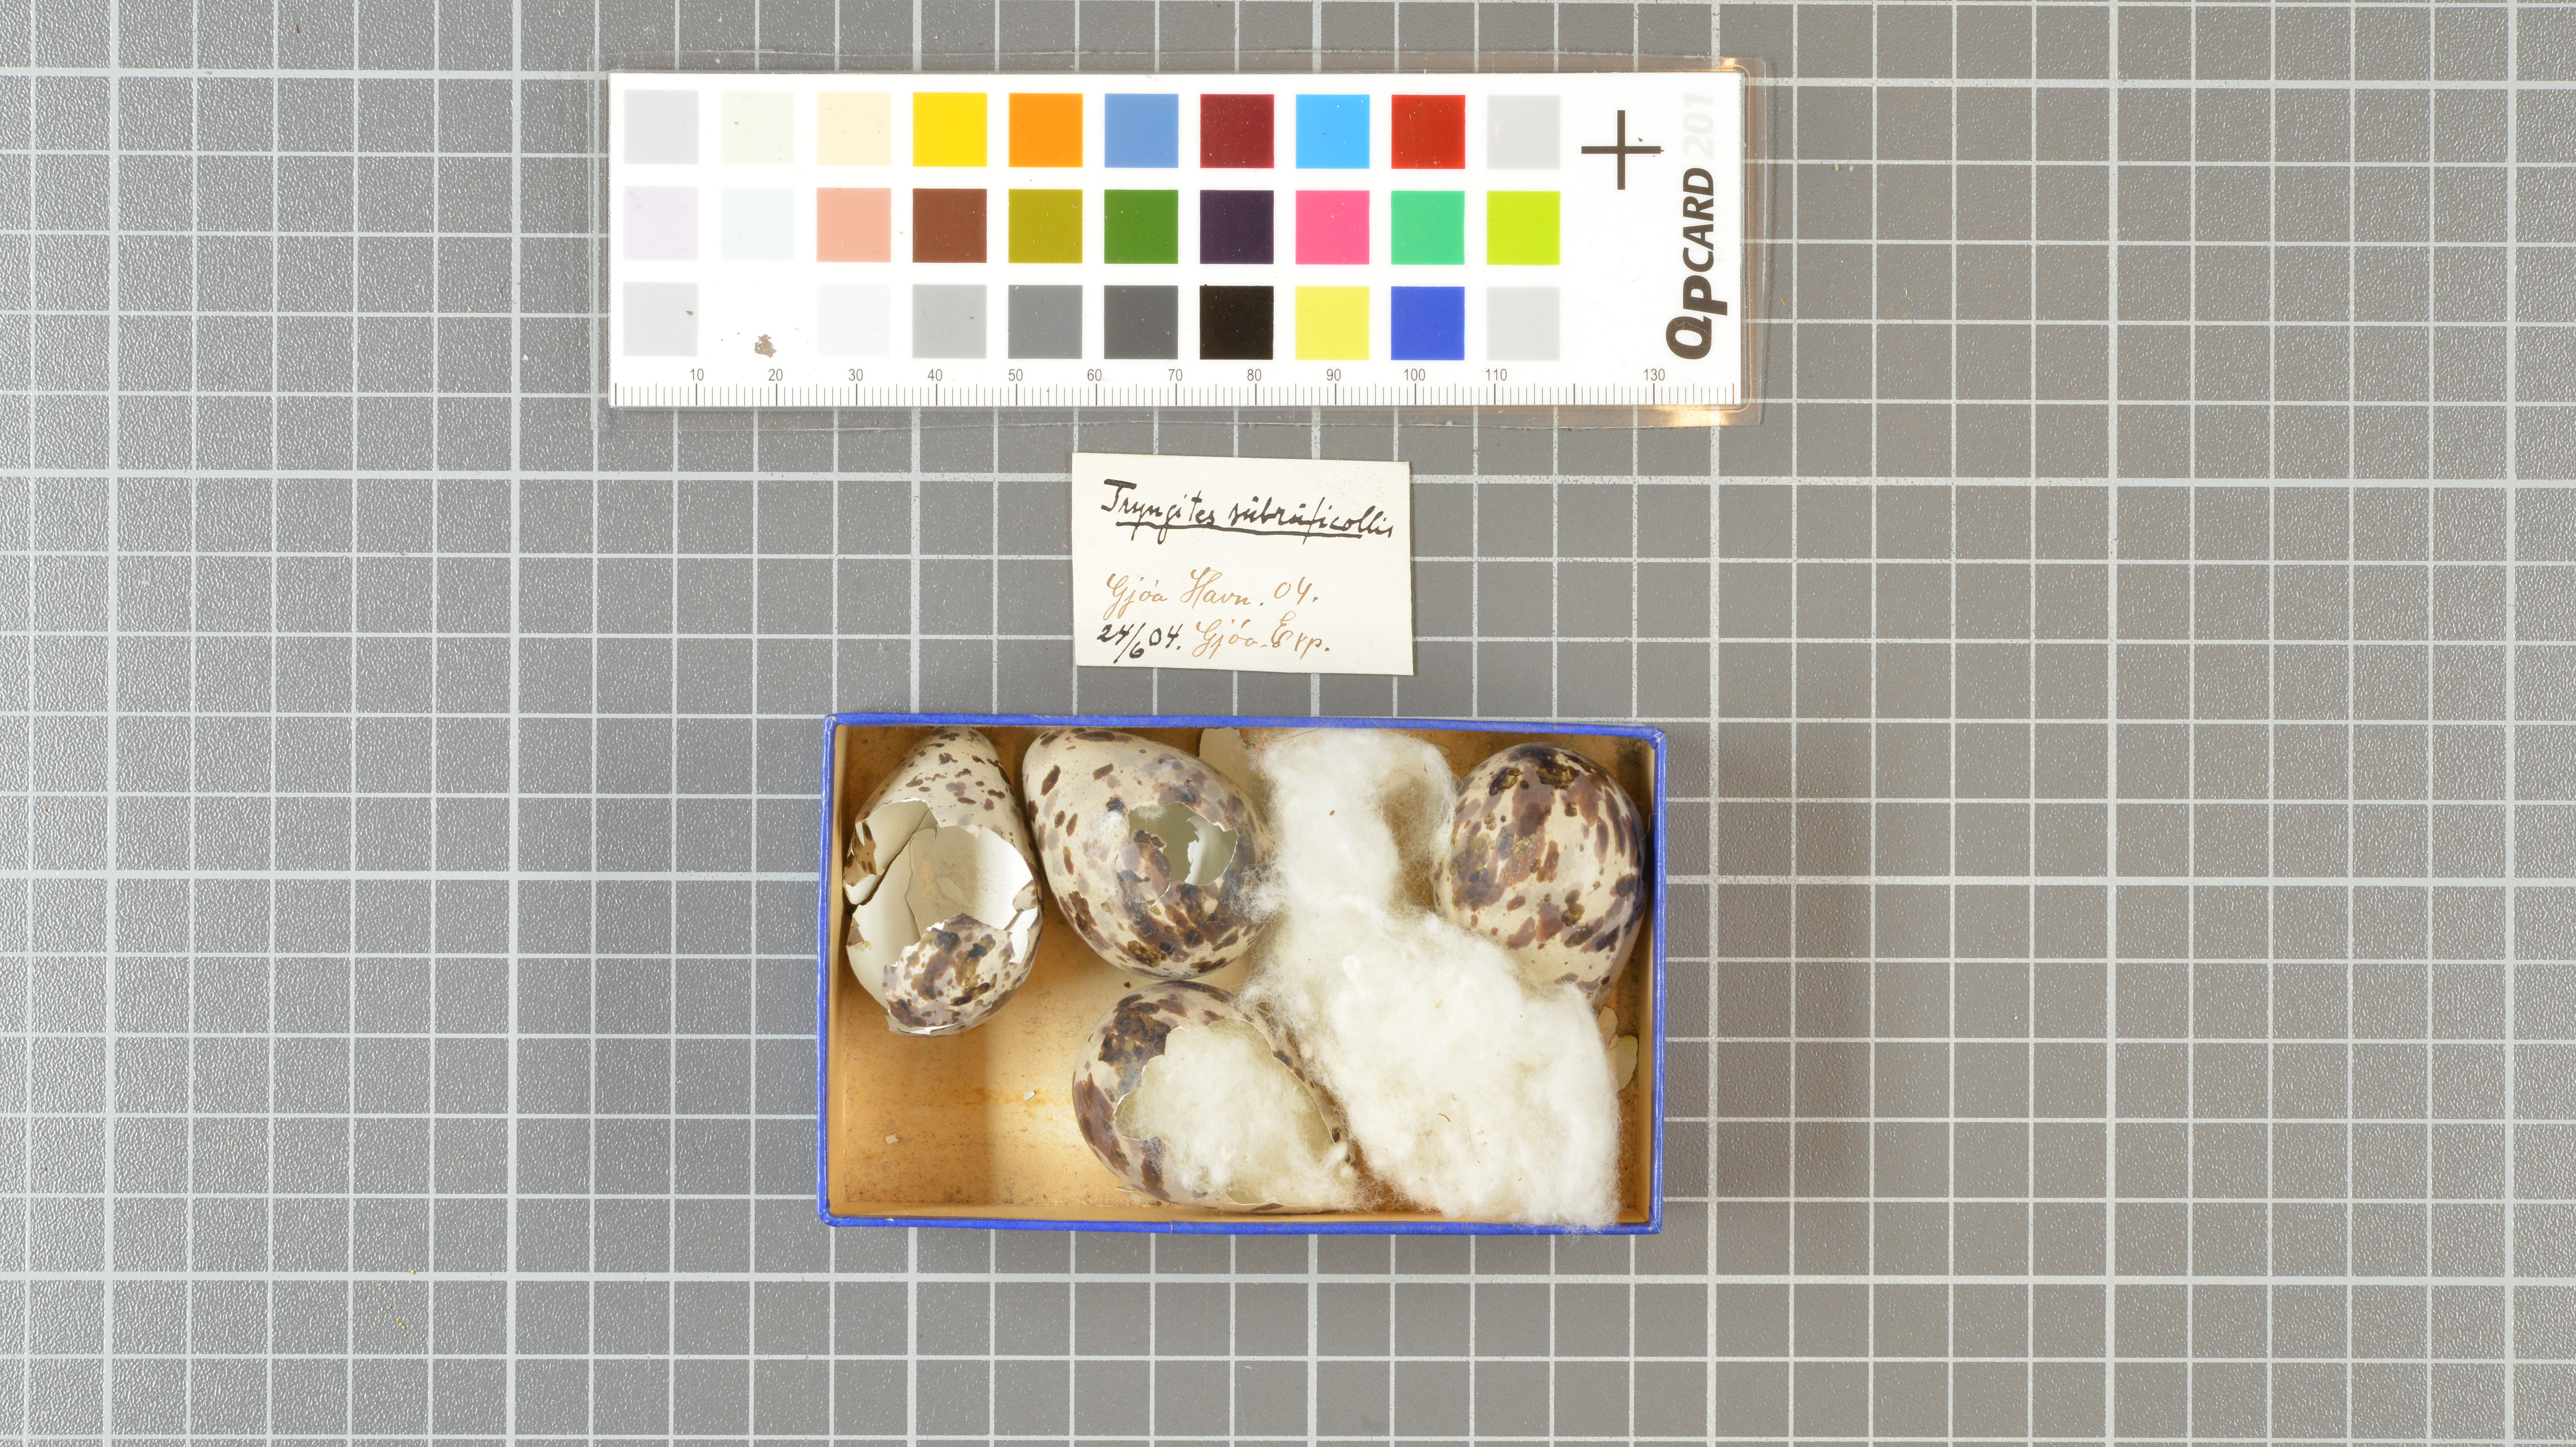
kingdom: Animalia
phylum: Chordata
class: Aves
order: Charadriiformes
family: Scolopacidae
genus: Calidris
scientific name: Calidris subruficollis
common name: Buff-breasted sandpiper
